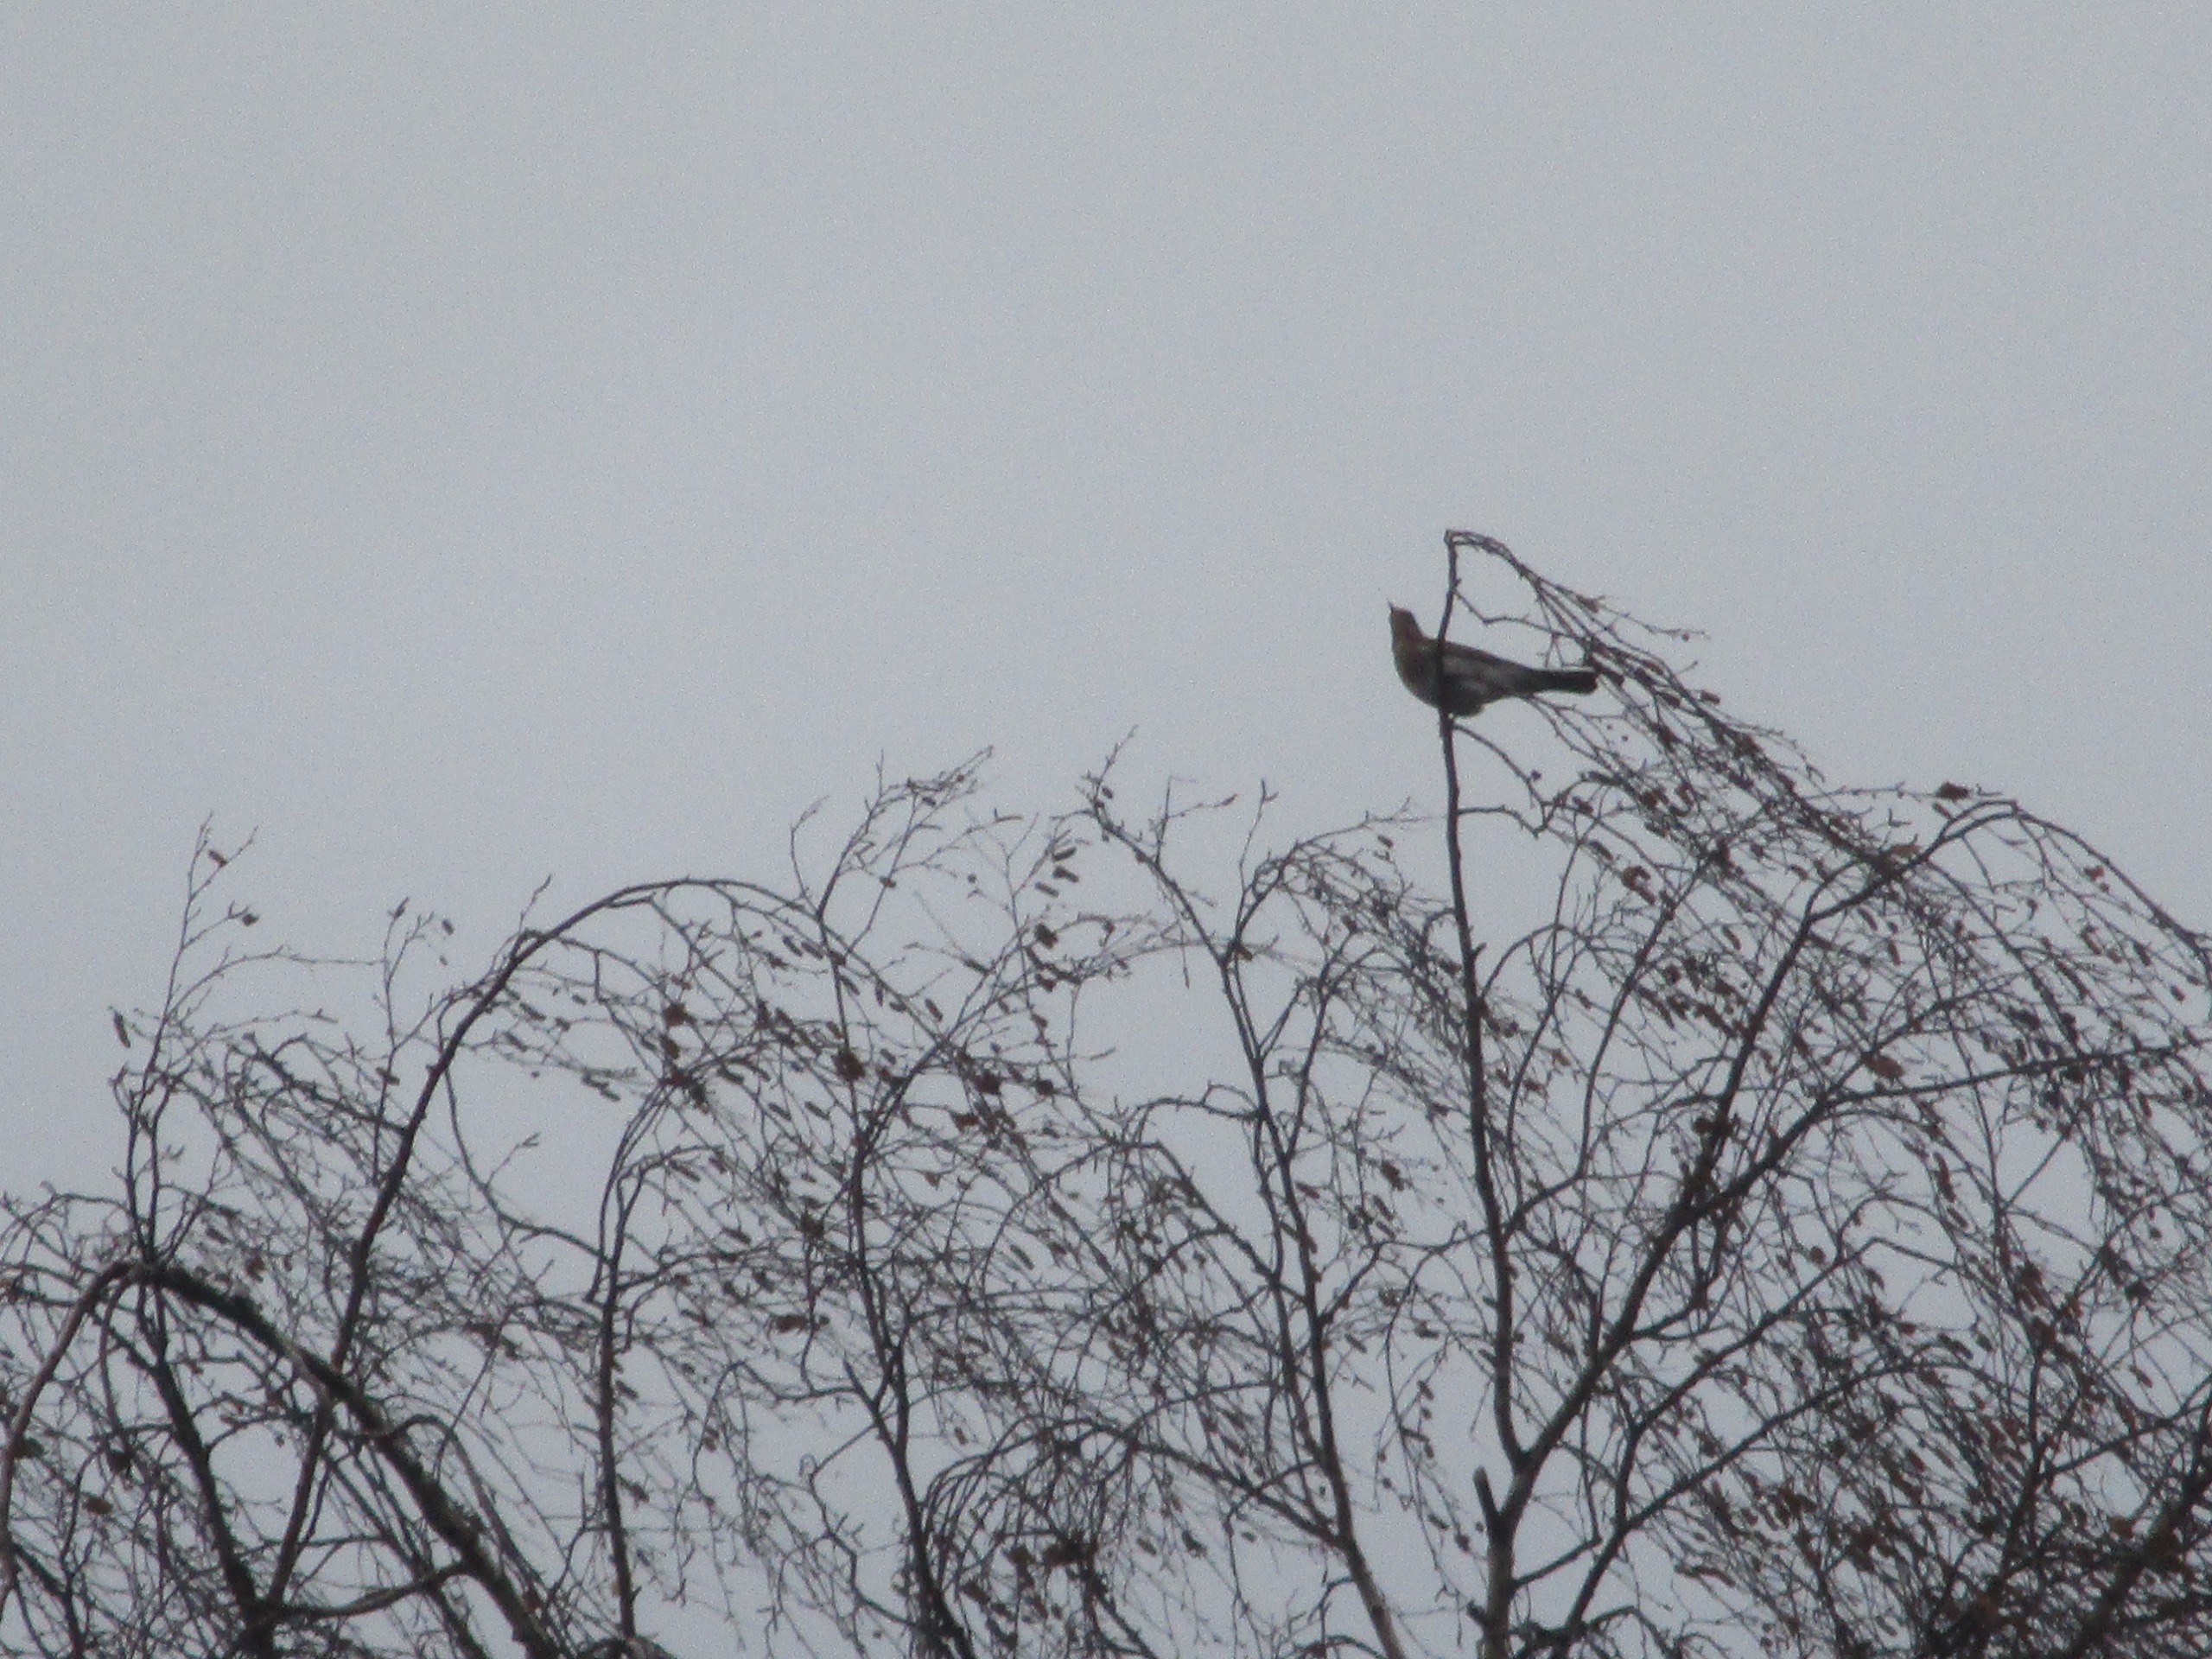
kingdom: Animalia
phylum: Chordata
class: Aves
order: Passeriformes
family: Turdidae
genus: Turdus
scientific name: Turdus pilaris
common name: Sjagger
